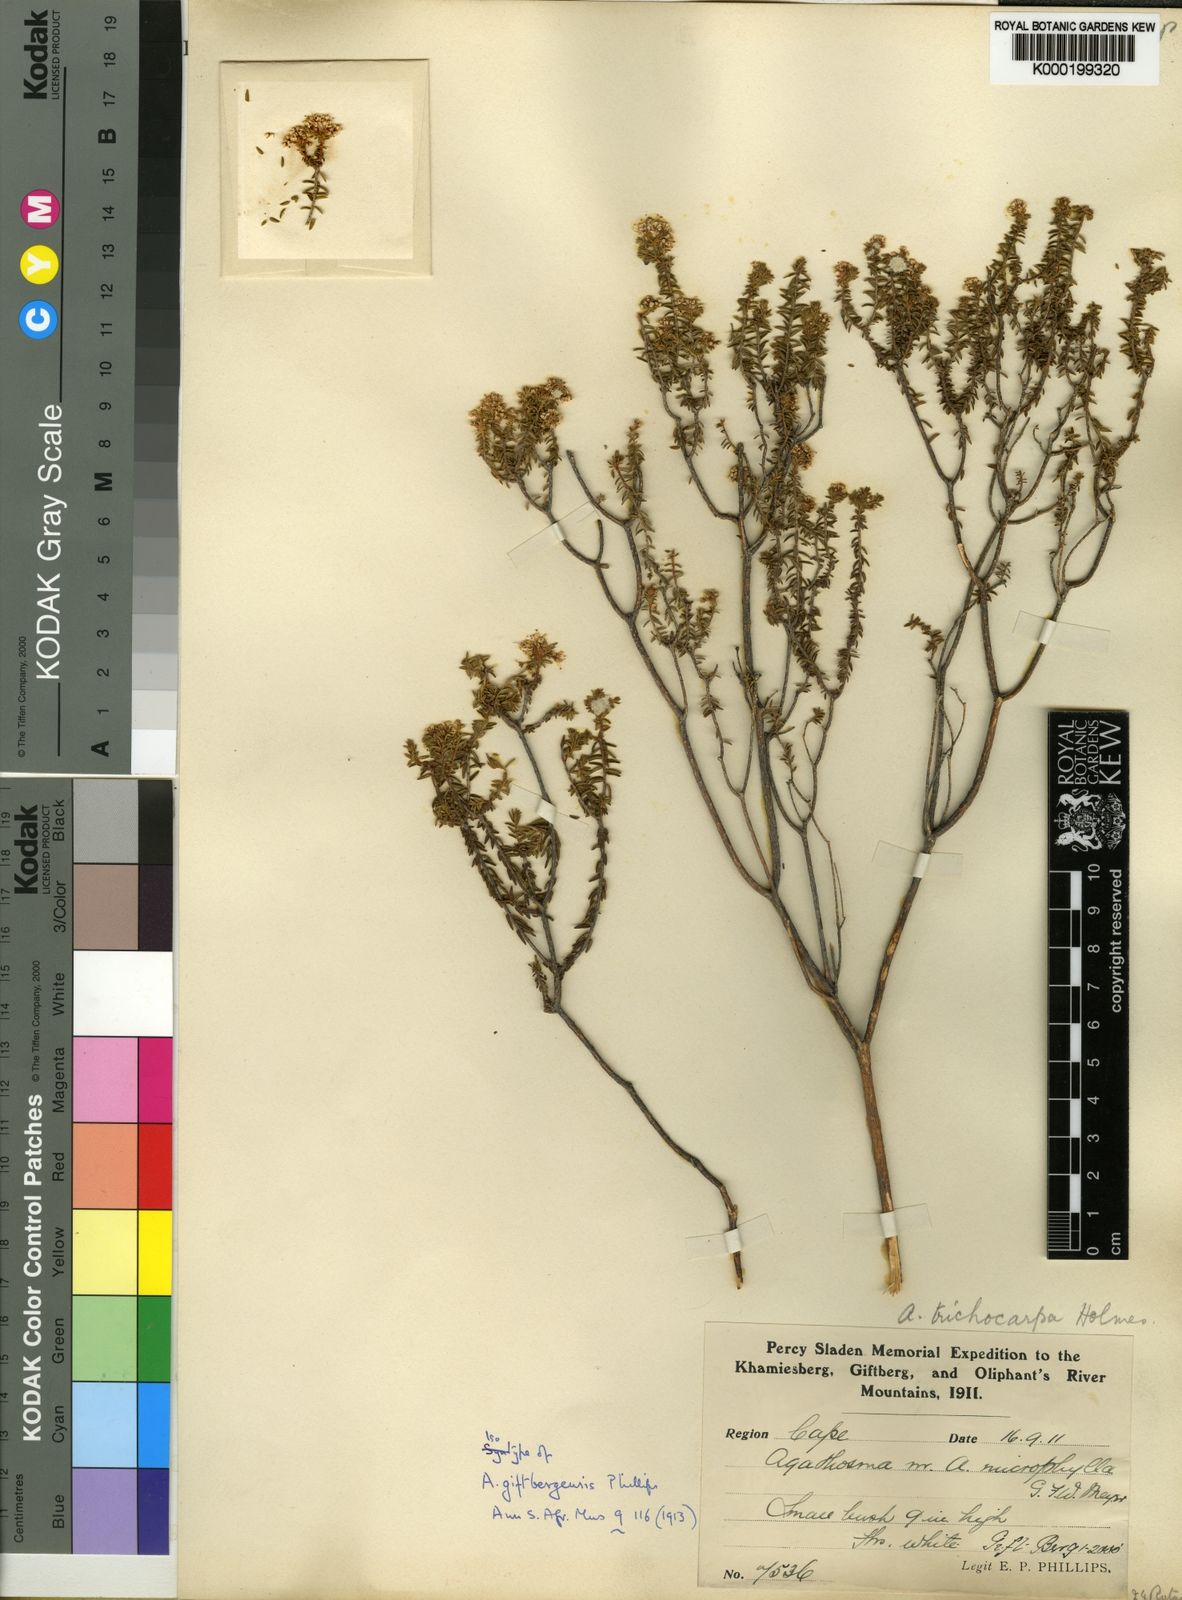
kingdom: Plantae
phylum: Tracheophyta
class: Magnoliopsida
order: Sapindales
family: Rutaceae
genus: Agathosma
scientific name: Agathosma giftbergensis
